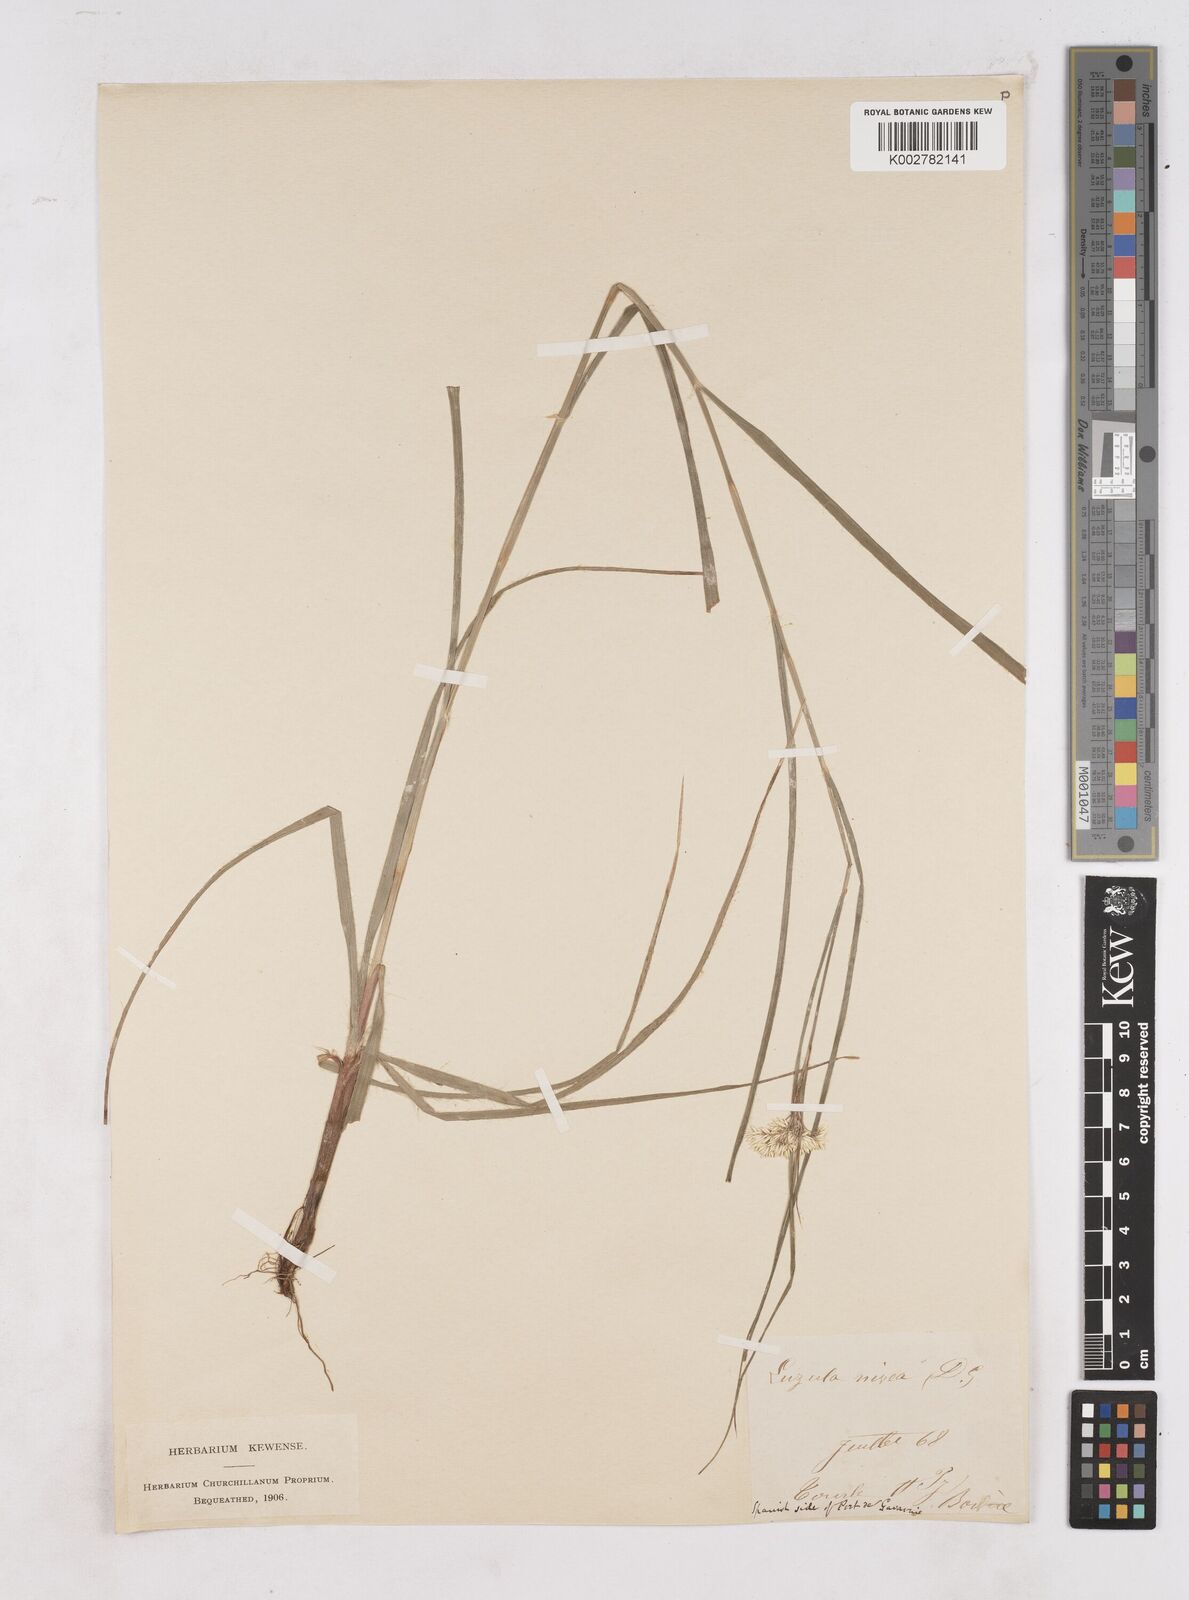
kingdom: Plantae
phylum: Tracheophyta
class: Liliopsida
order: Poales
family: Juncaceae
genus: Luzula
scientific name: Luzula nivea
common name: Snow-white wood-rush
